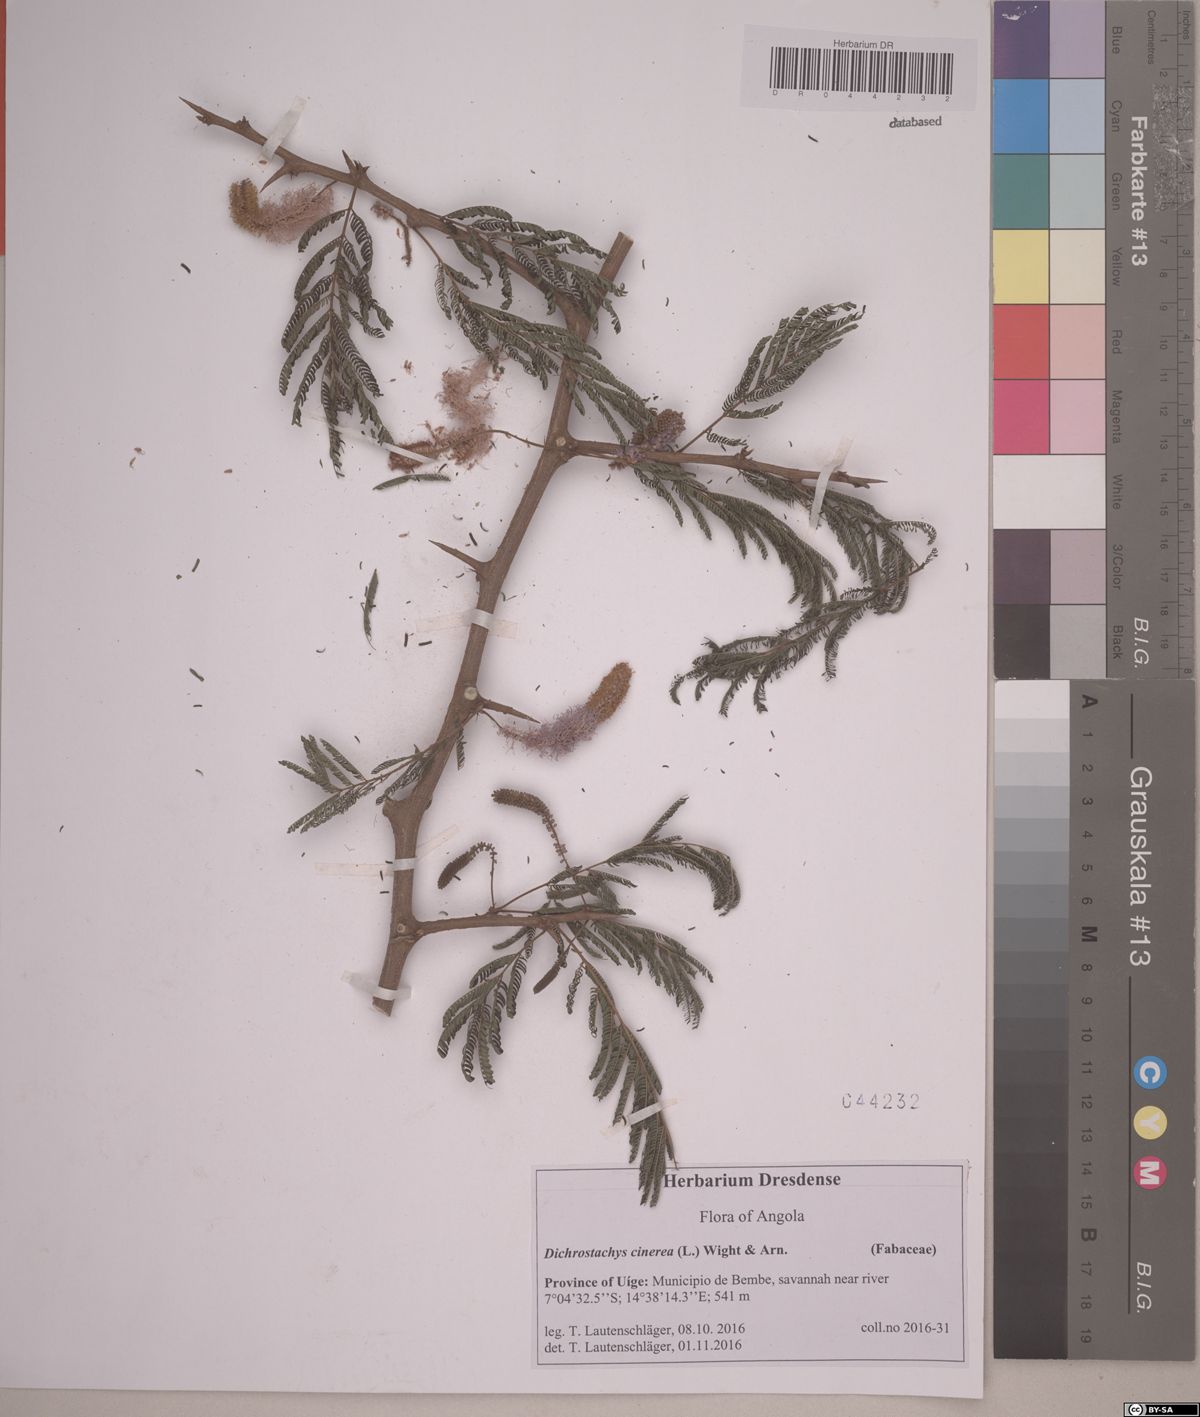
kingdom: Plantae
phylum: Tracheophyta
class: Magnoliopsida
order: Fabales
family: Fabaceae
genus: Dichrostachys
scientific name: Dichrostachys cinerea
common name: Sicklebush
